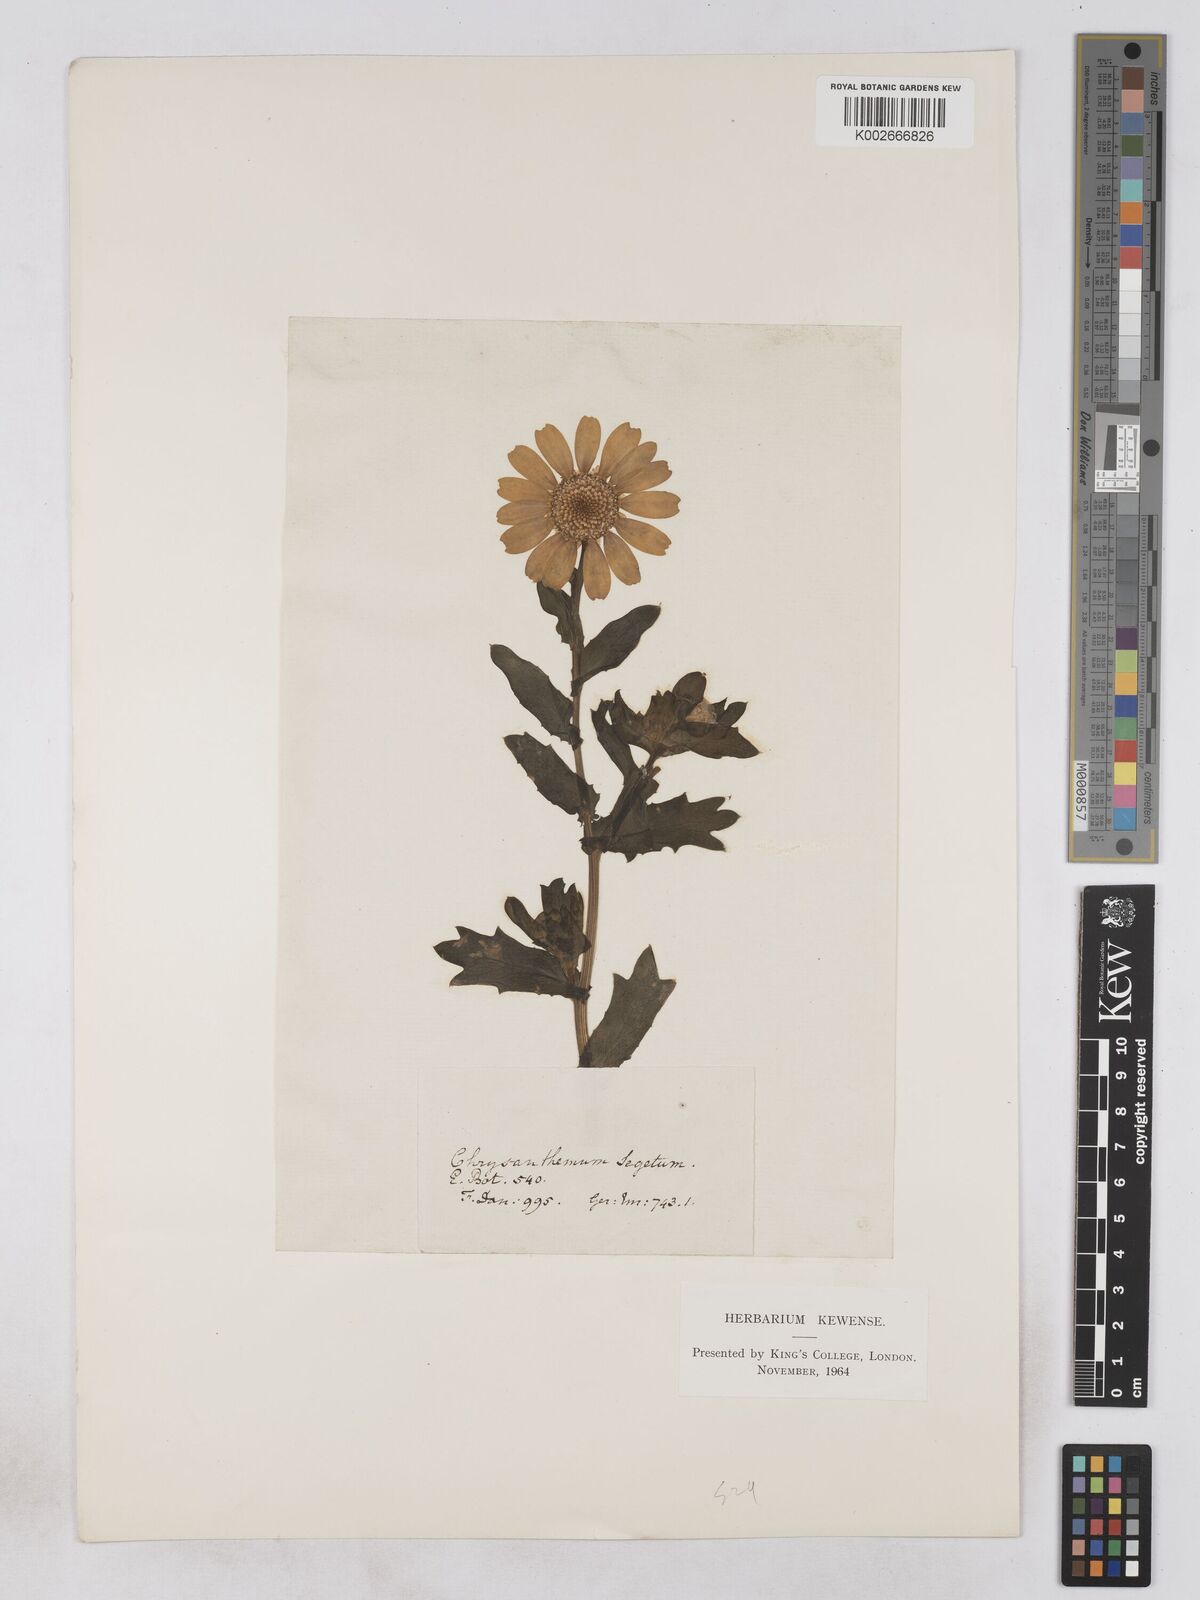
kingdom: Plantae
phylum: Tracheophyta
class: Magnoliopsida
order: Asterales
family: Asteraceae
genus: Glebionis
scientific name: Glebionis segetum
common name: Corndaisy
